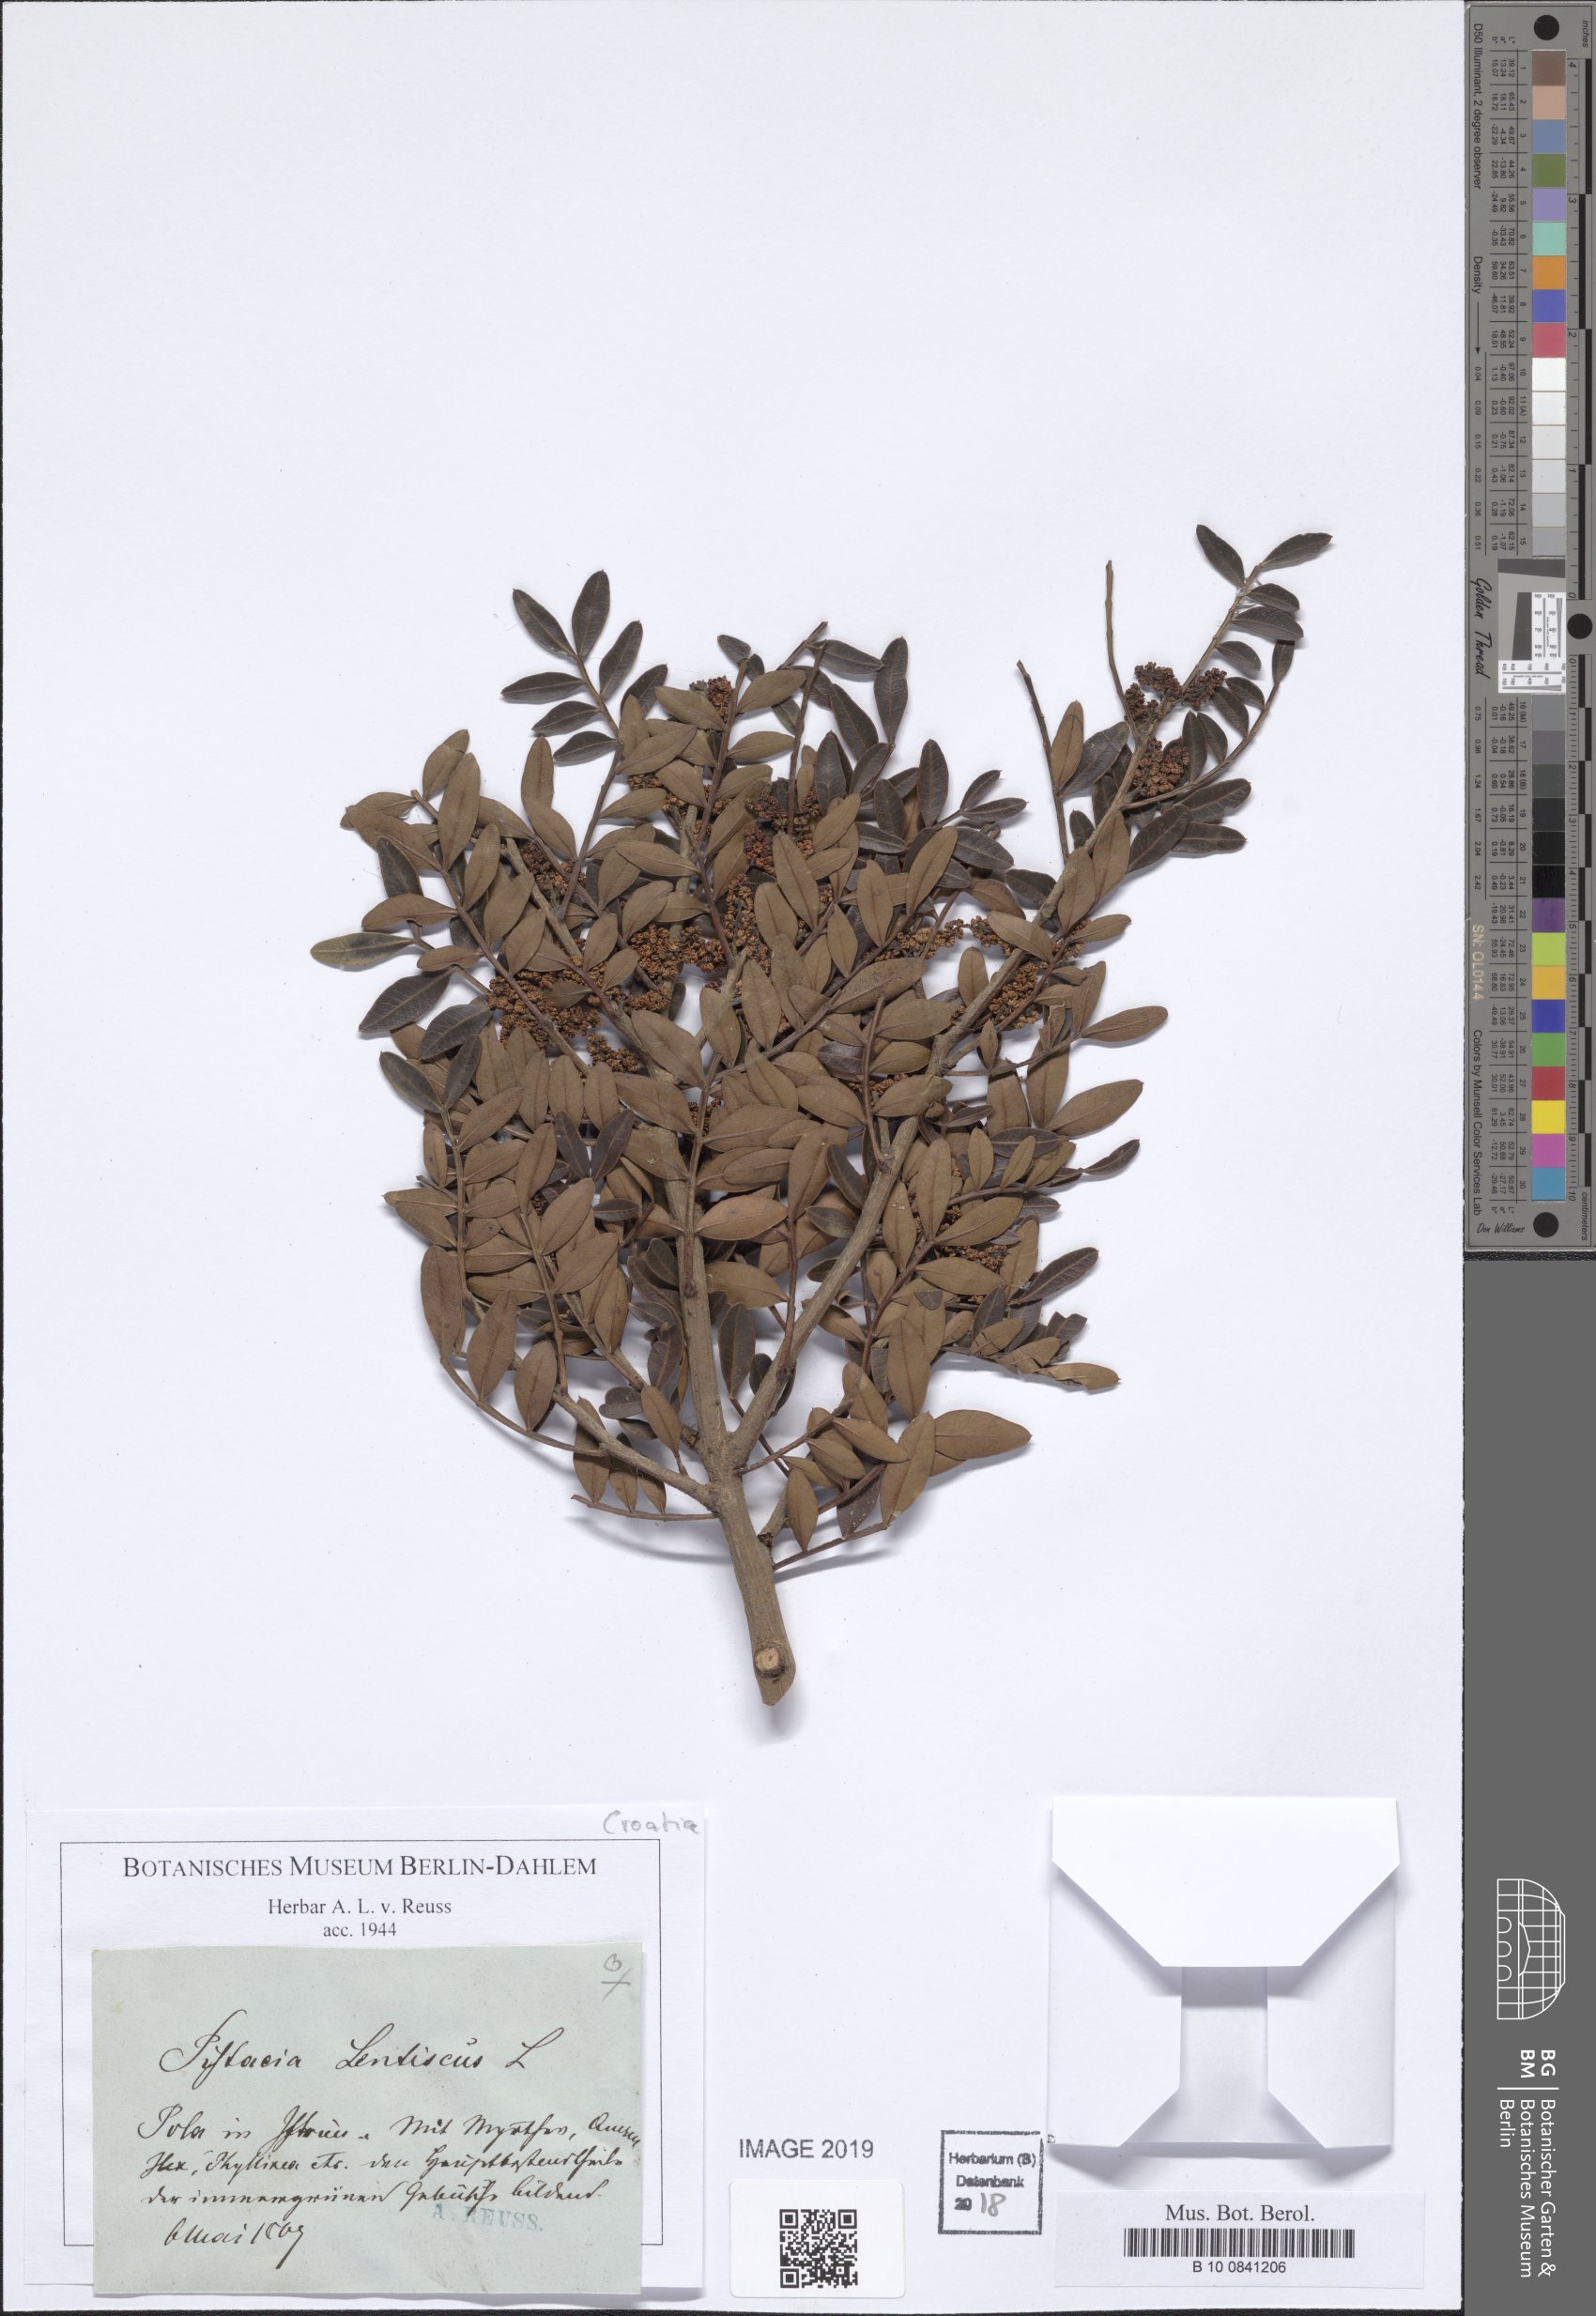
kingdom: Plantae
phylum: Tracheophyta
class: Magnoliopsida
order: Sapindales
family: Anacardiaceae
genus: Pistacia
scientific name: Pistacia lentiscus
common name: Lentisk
